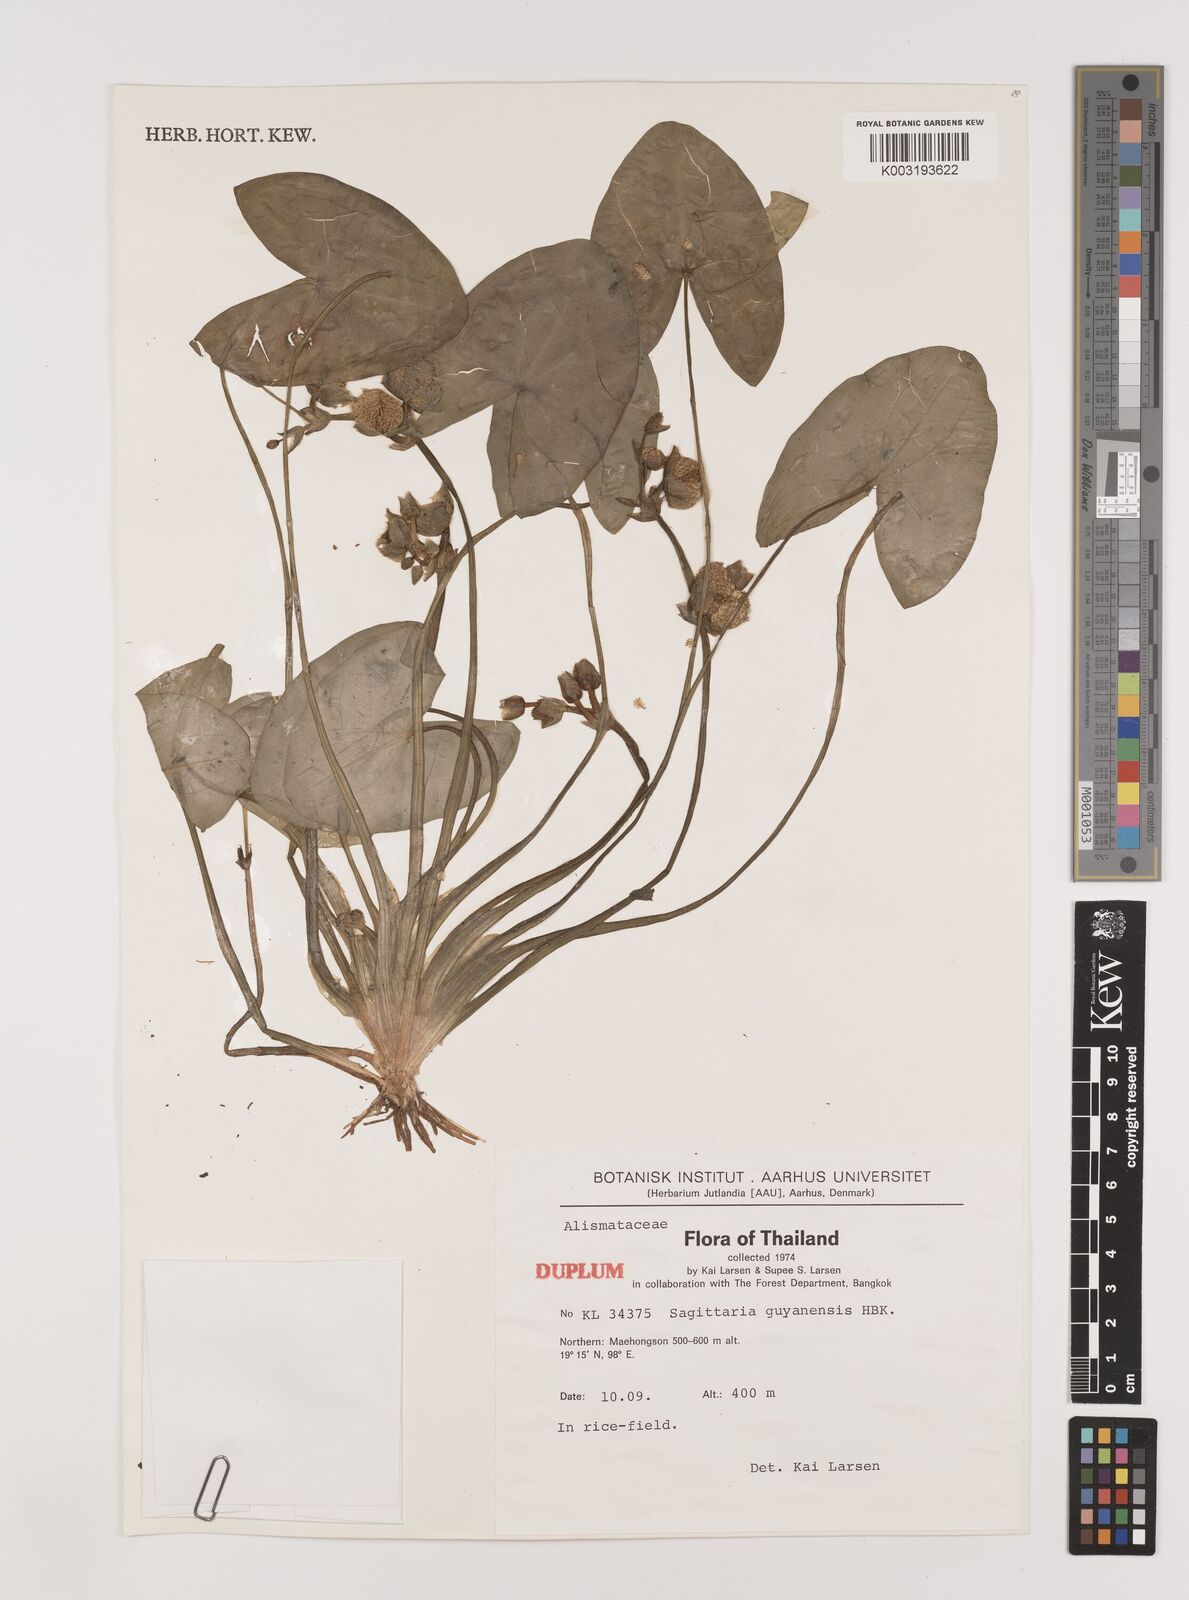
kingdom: Plantae
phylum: Tracheophyta
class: Liliopsida
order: Alismatales
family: Alismataceae
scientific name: Alismataceae
